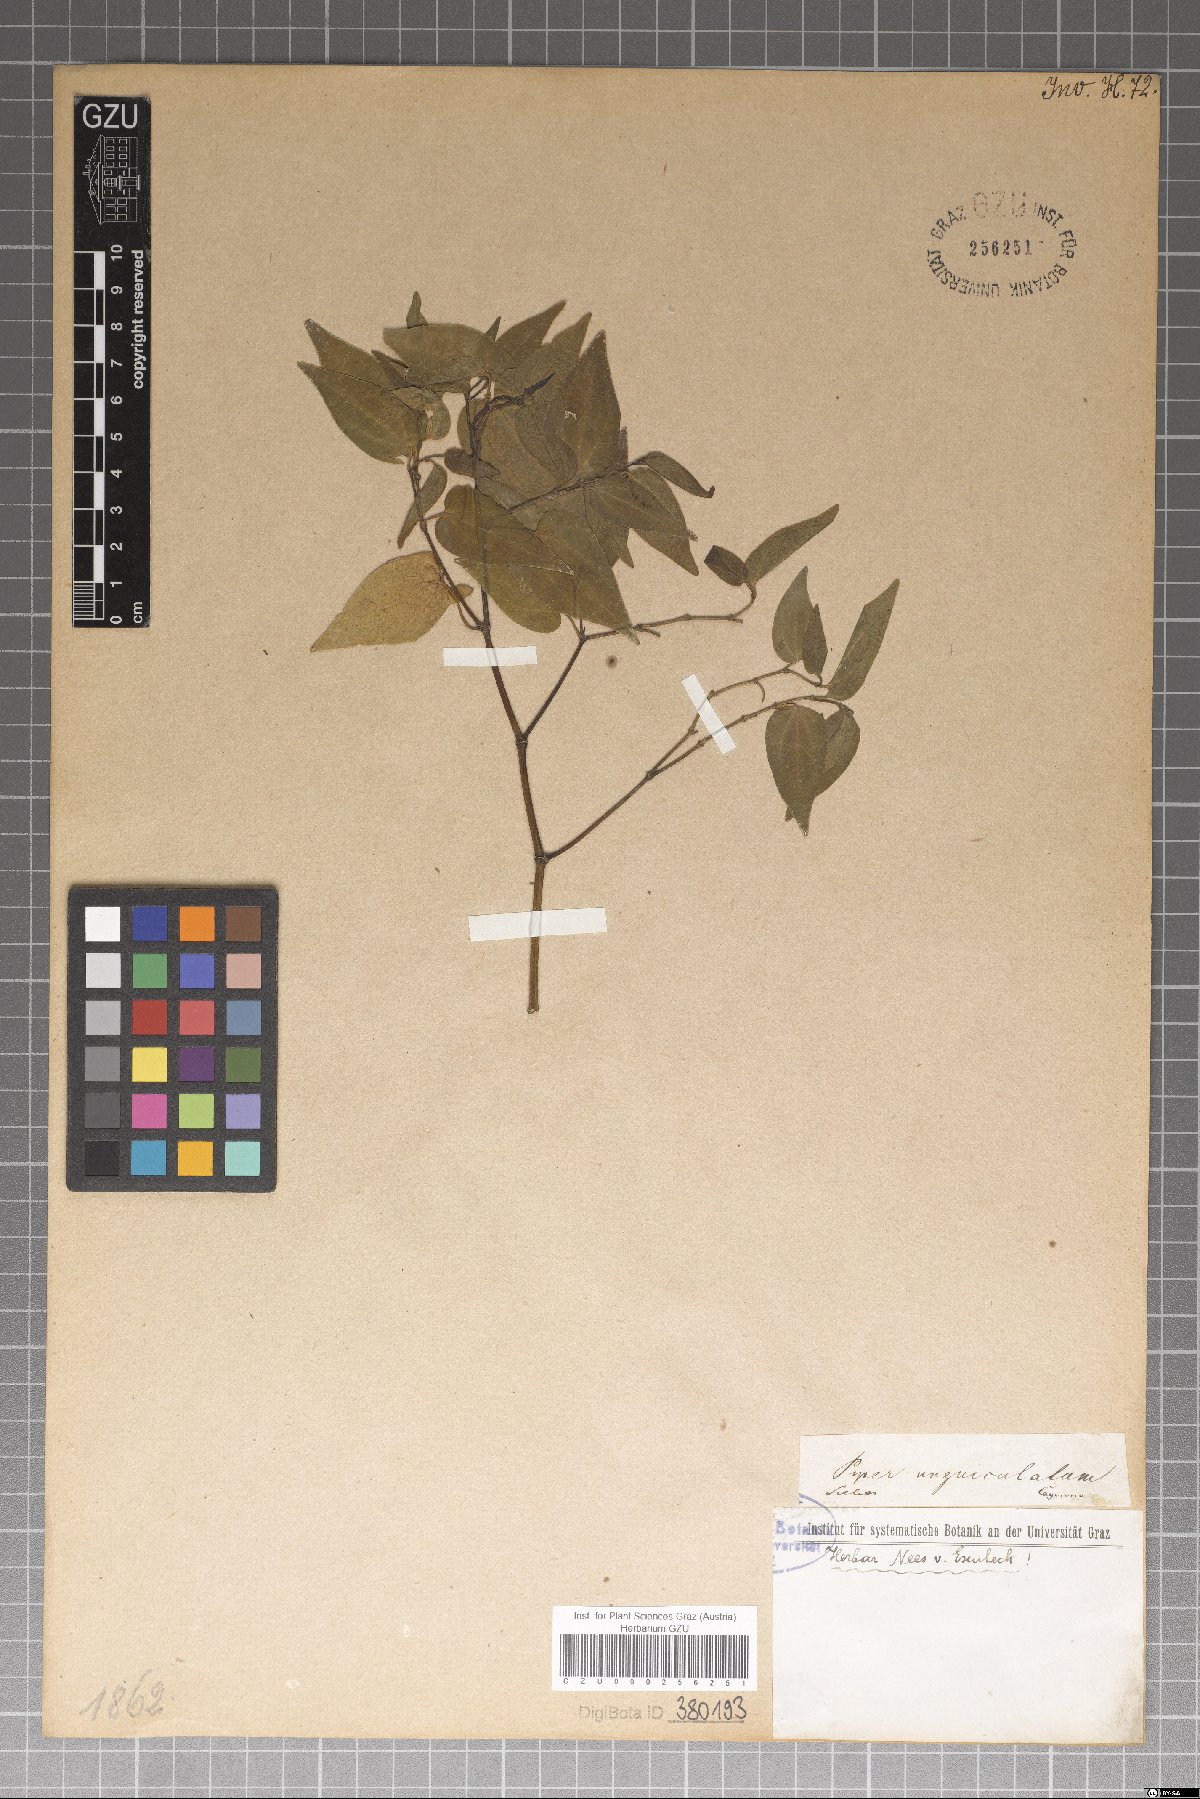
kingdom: Plantae
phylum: Tracheophyta
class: Magnoliopsida
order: Piperales
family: Piperaceae
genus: Piper
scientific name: Piper unguiculatum
